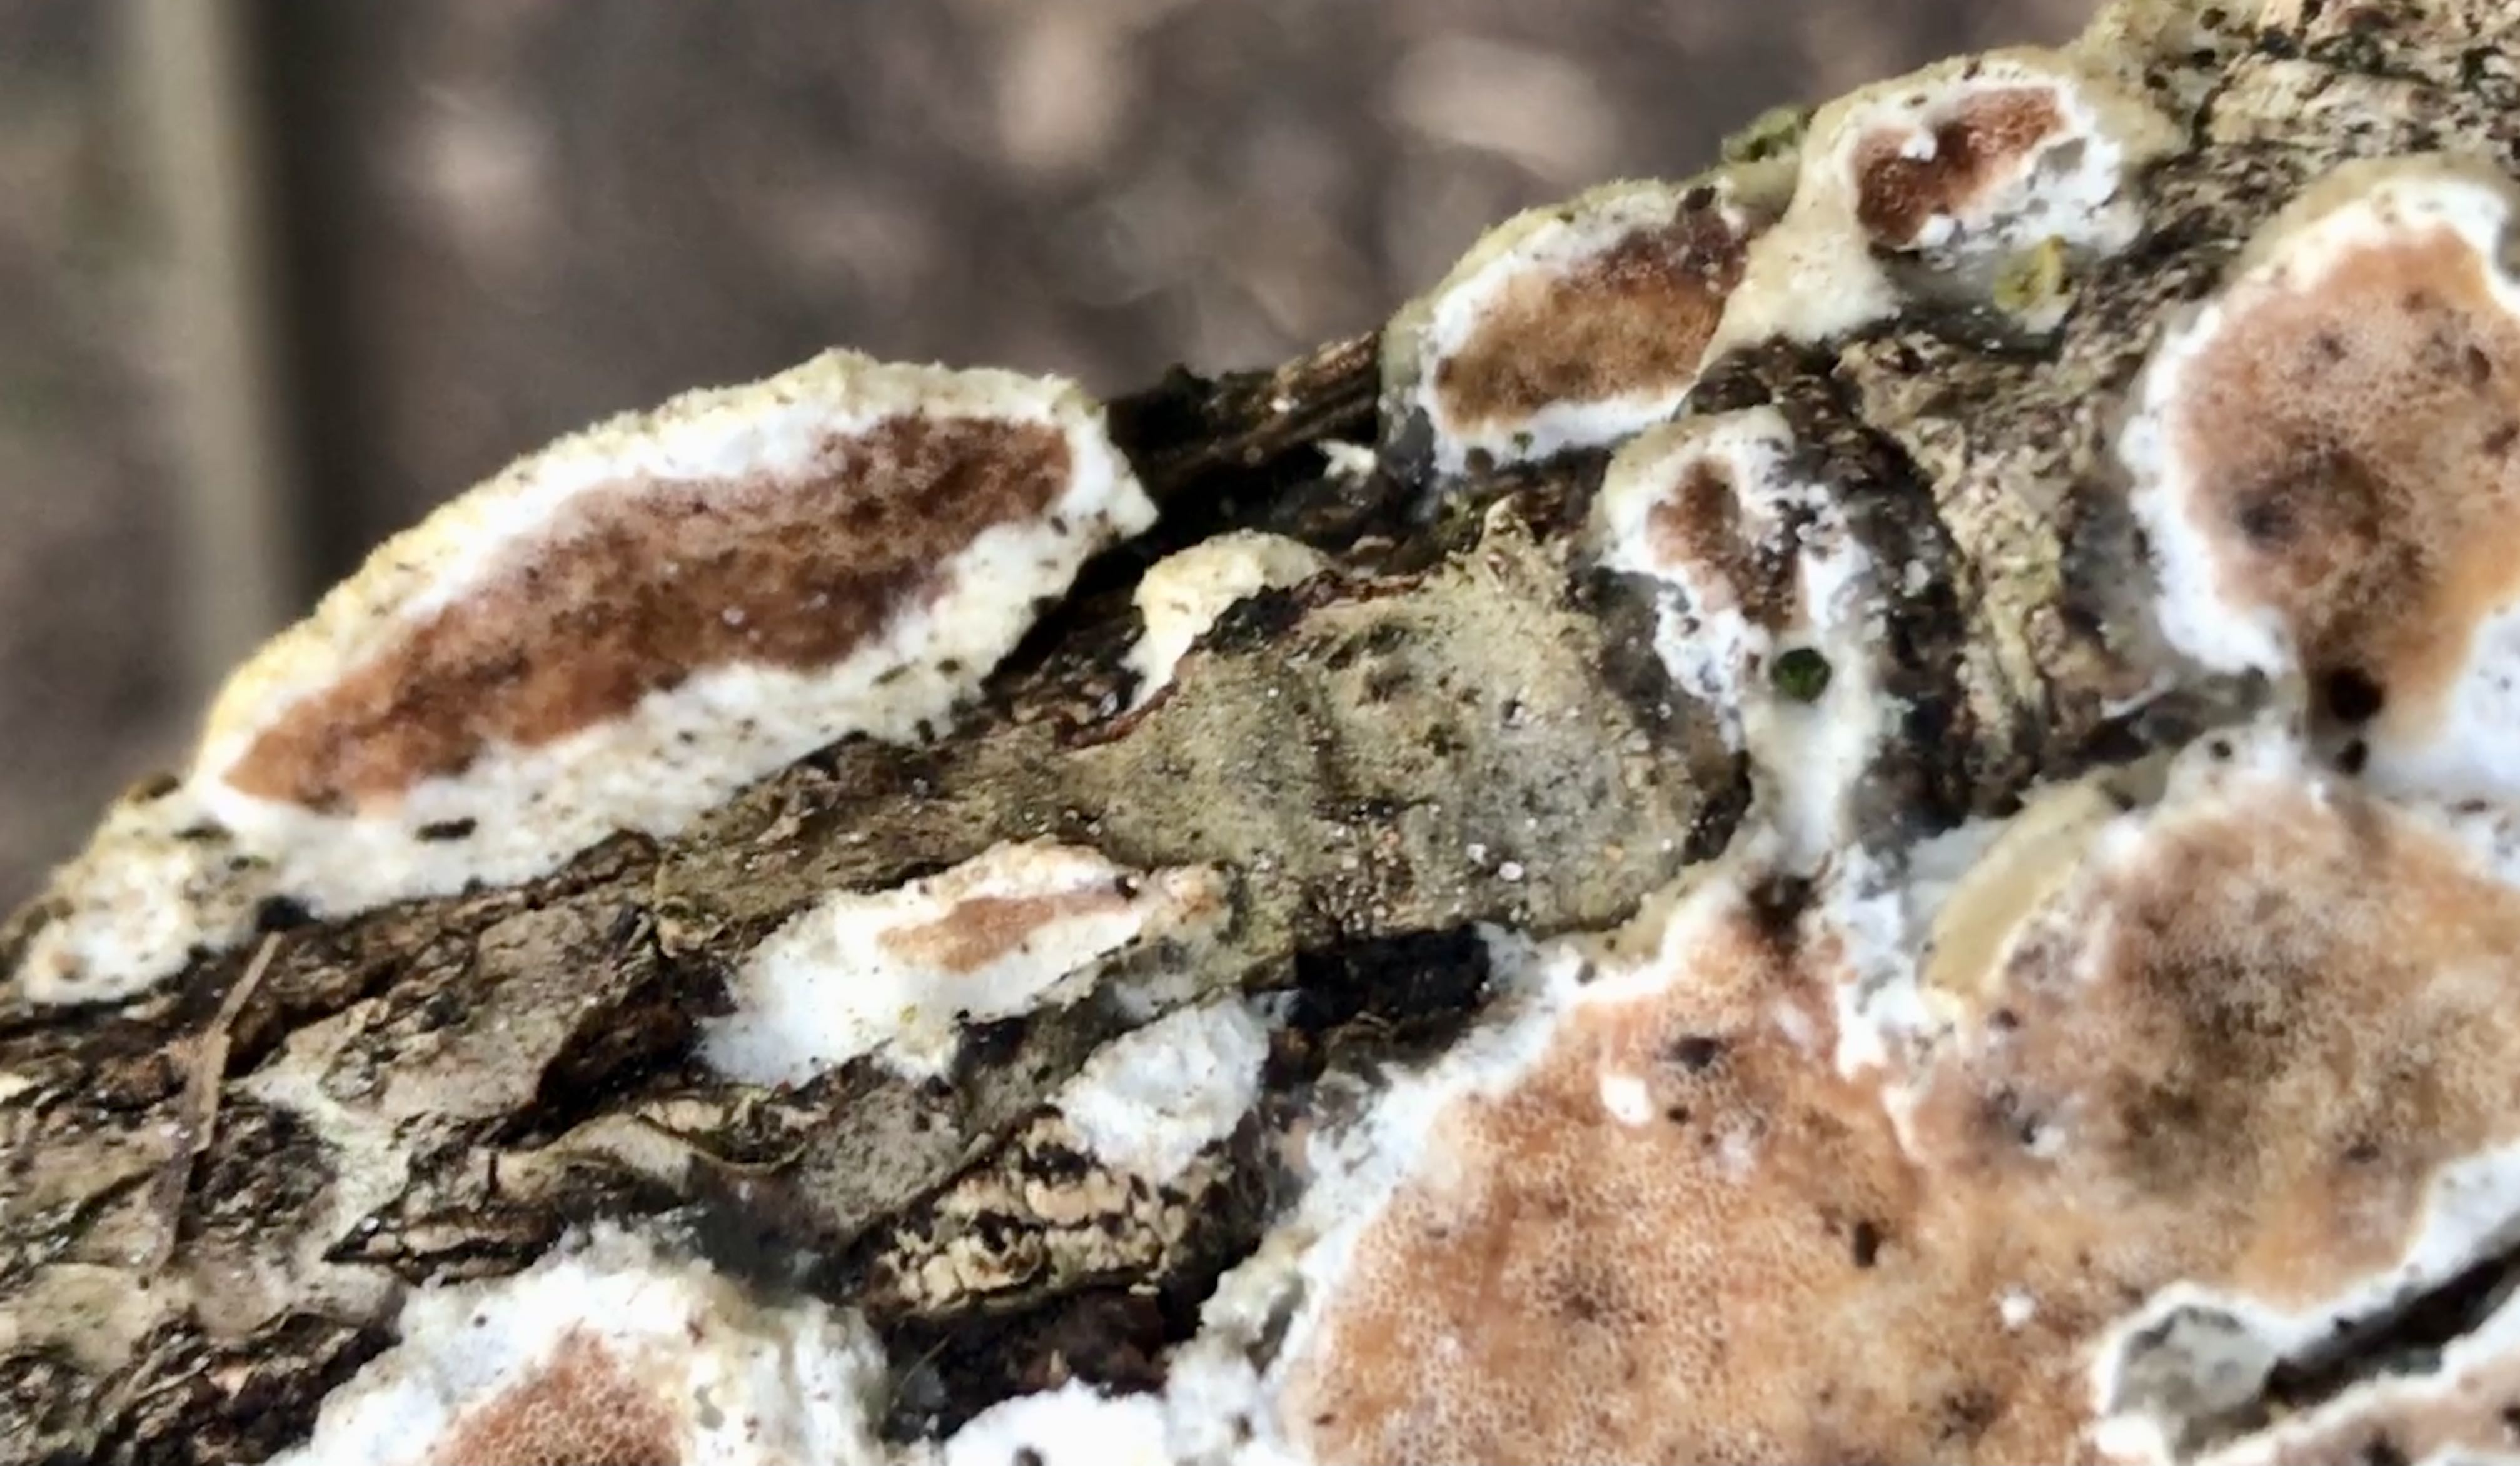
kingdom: Fungi
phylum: Basidiomycota
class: Agaricomycetes
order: Polyporales
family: Irpicaceae
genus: Vitreoporus
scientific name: Vitreoporus dichrous
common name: tofarvet foldporesvamp
